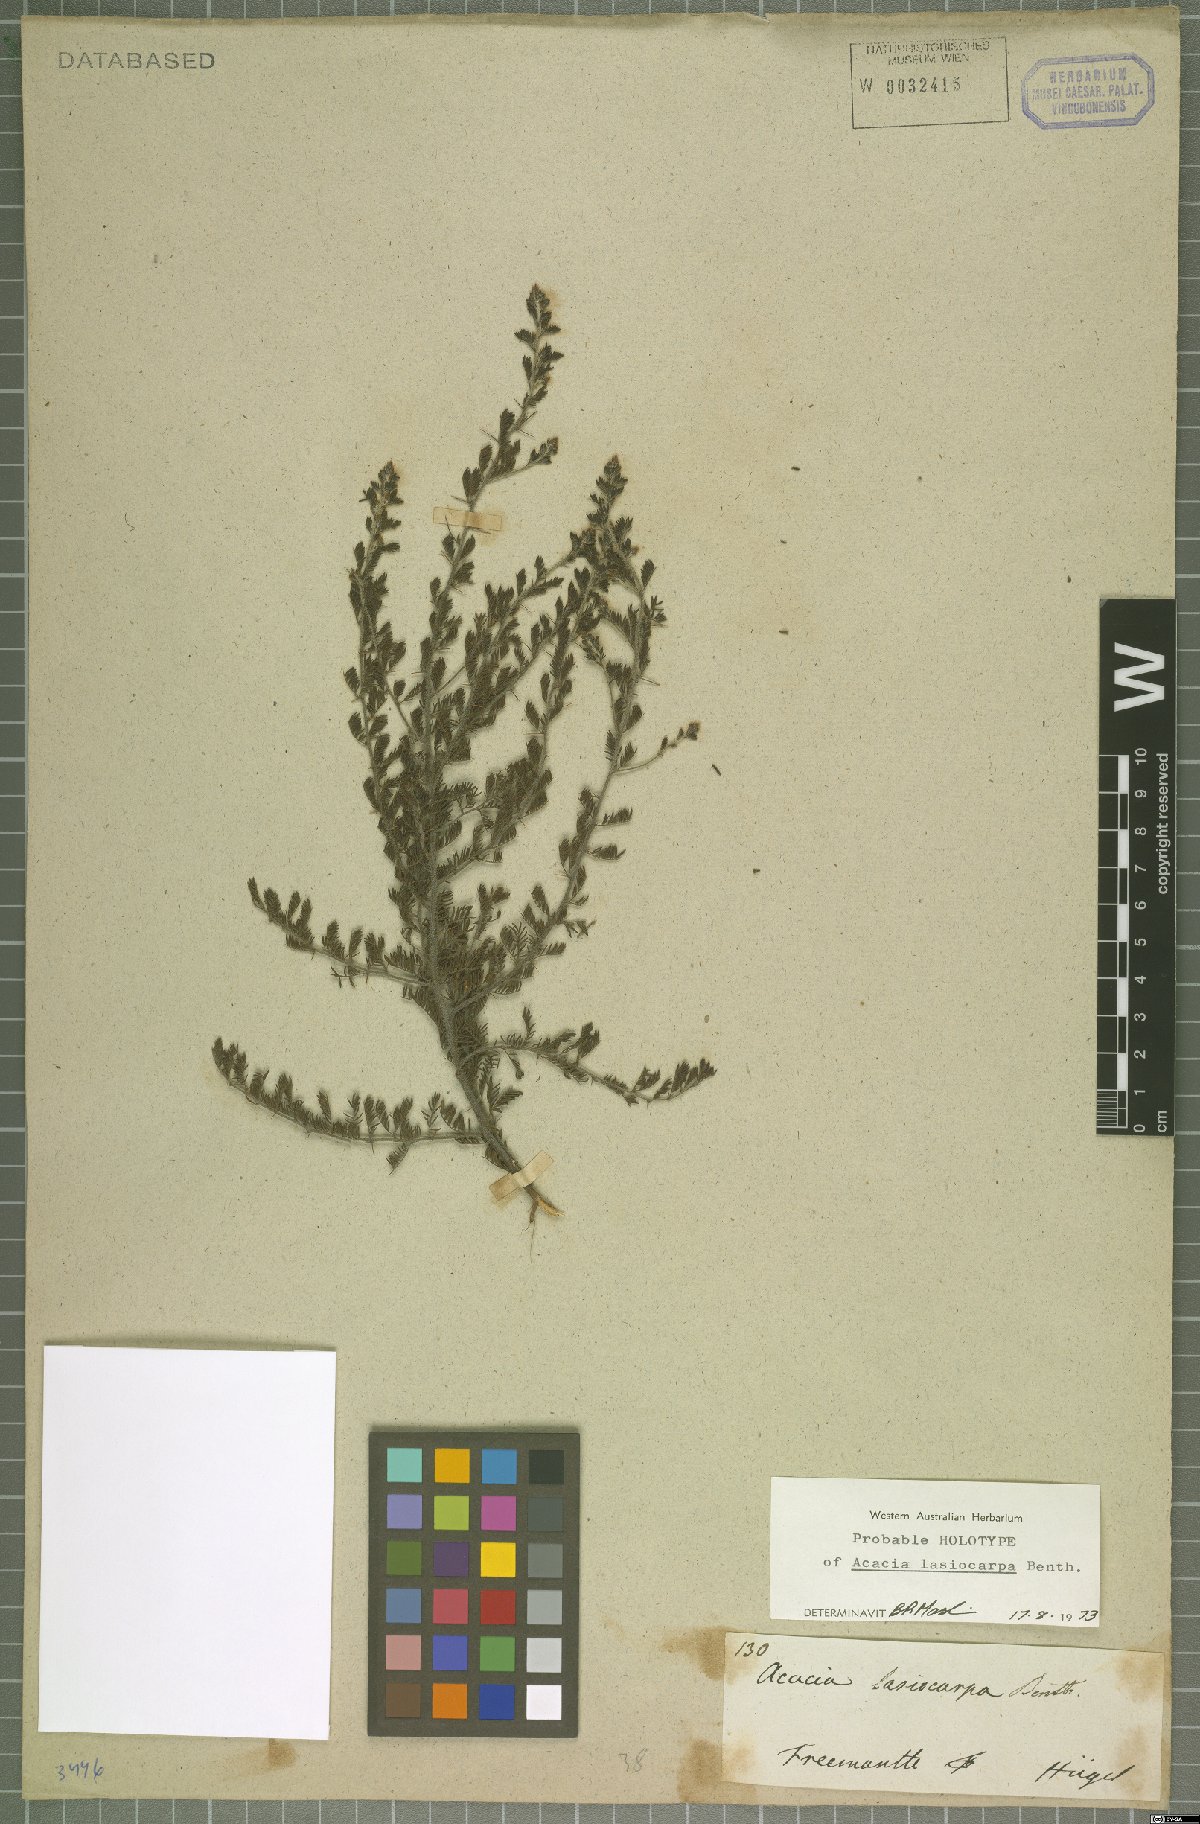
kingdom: Plantae
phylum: Tracheophyta
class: Magnoliopsida
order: Fabales
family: Fabaceae
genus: Acacia
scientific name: Acacia lasiocarpa
